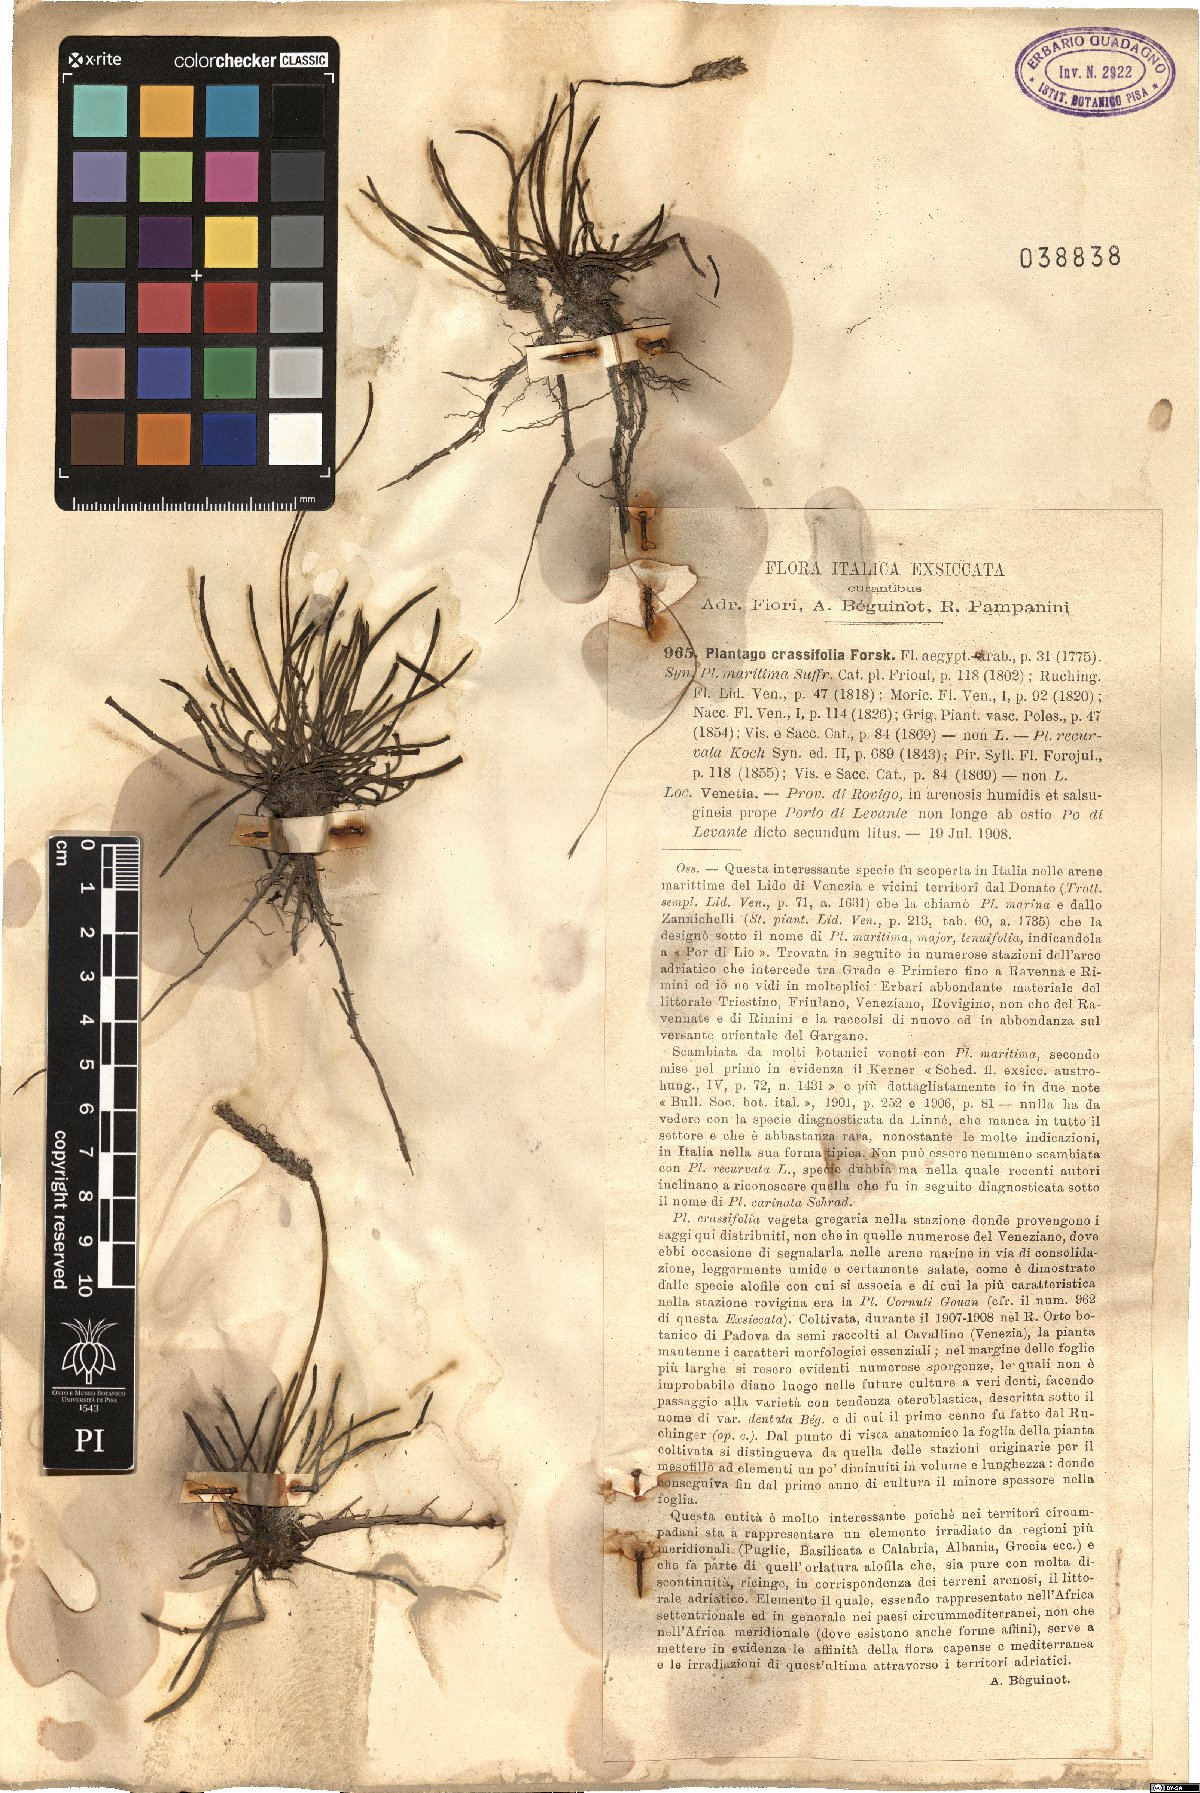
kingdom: Plantae
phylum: Tracheophyta
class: Magnoliopsida
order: Lamiales
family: Plantaginaceae
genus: Plantago
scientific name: Plantago crassifolia
